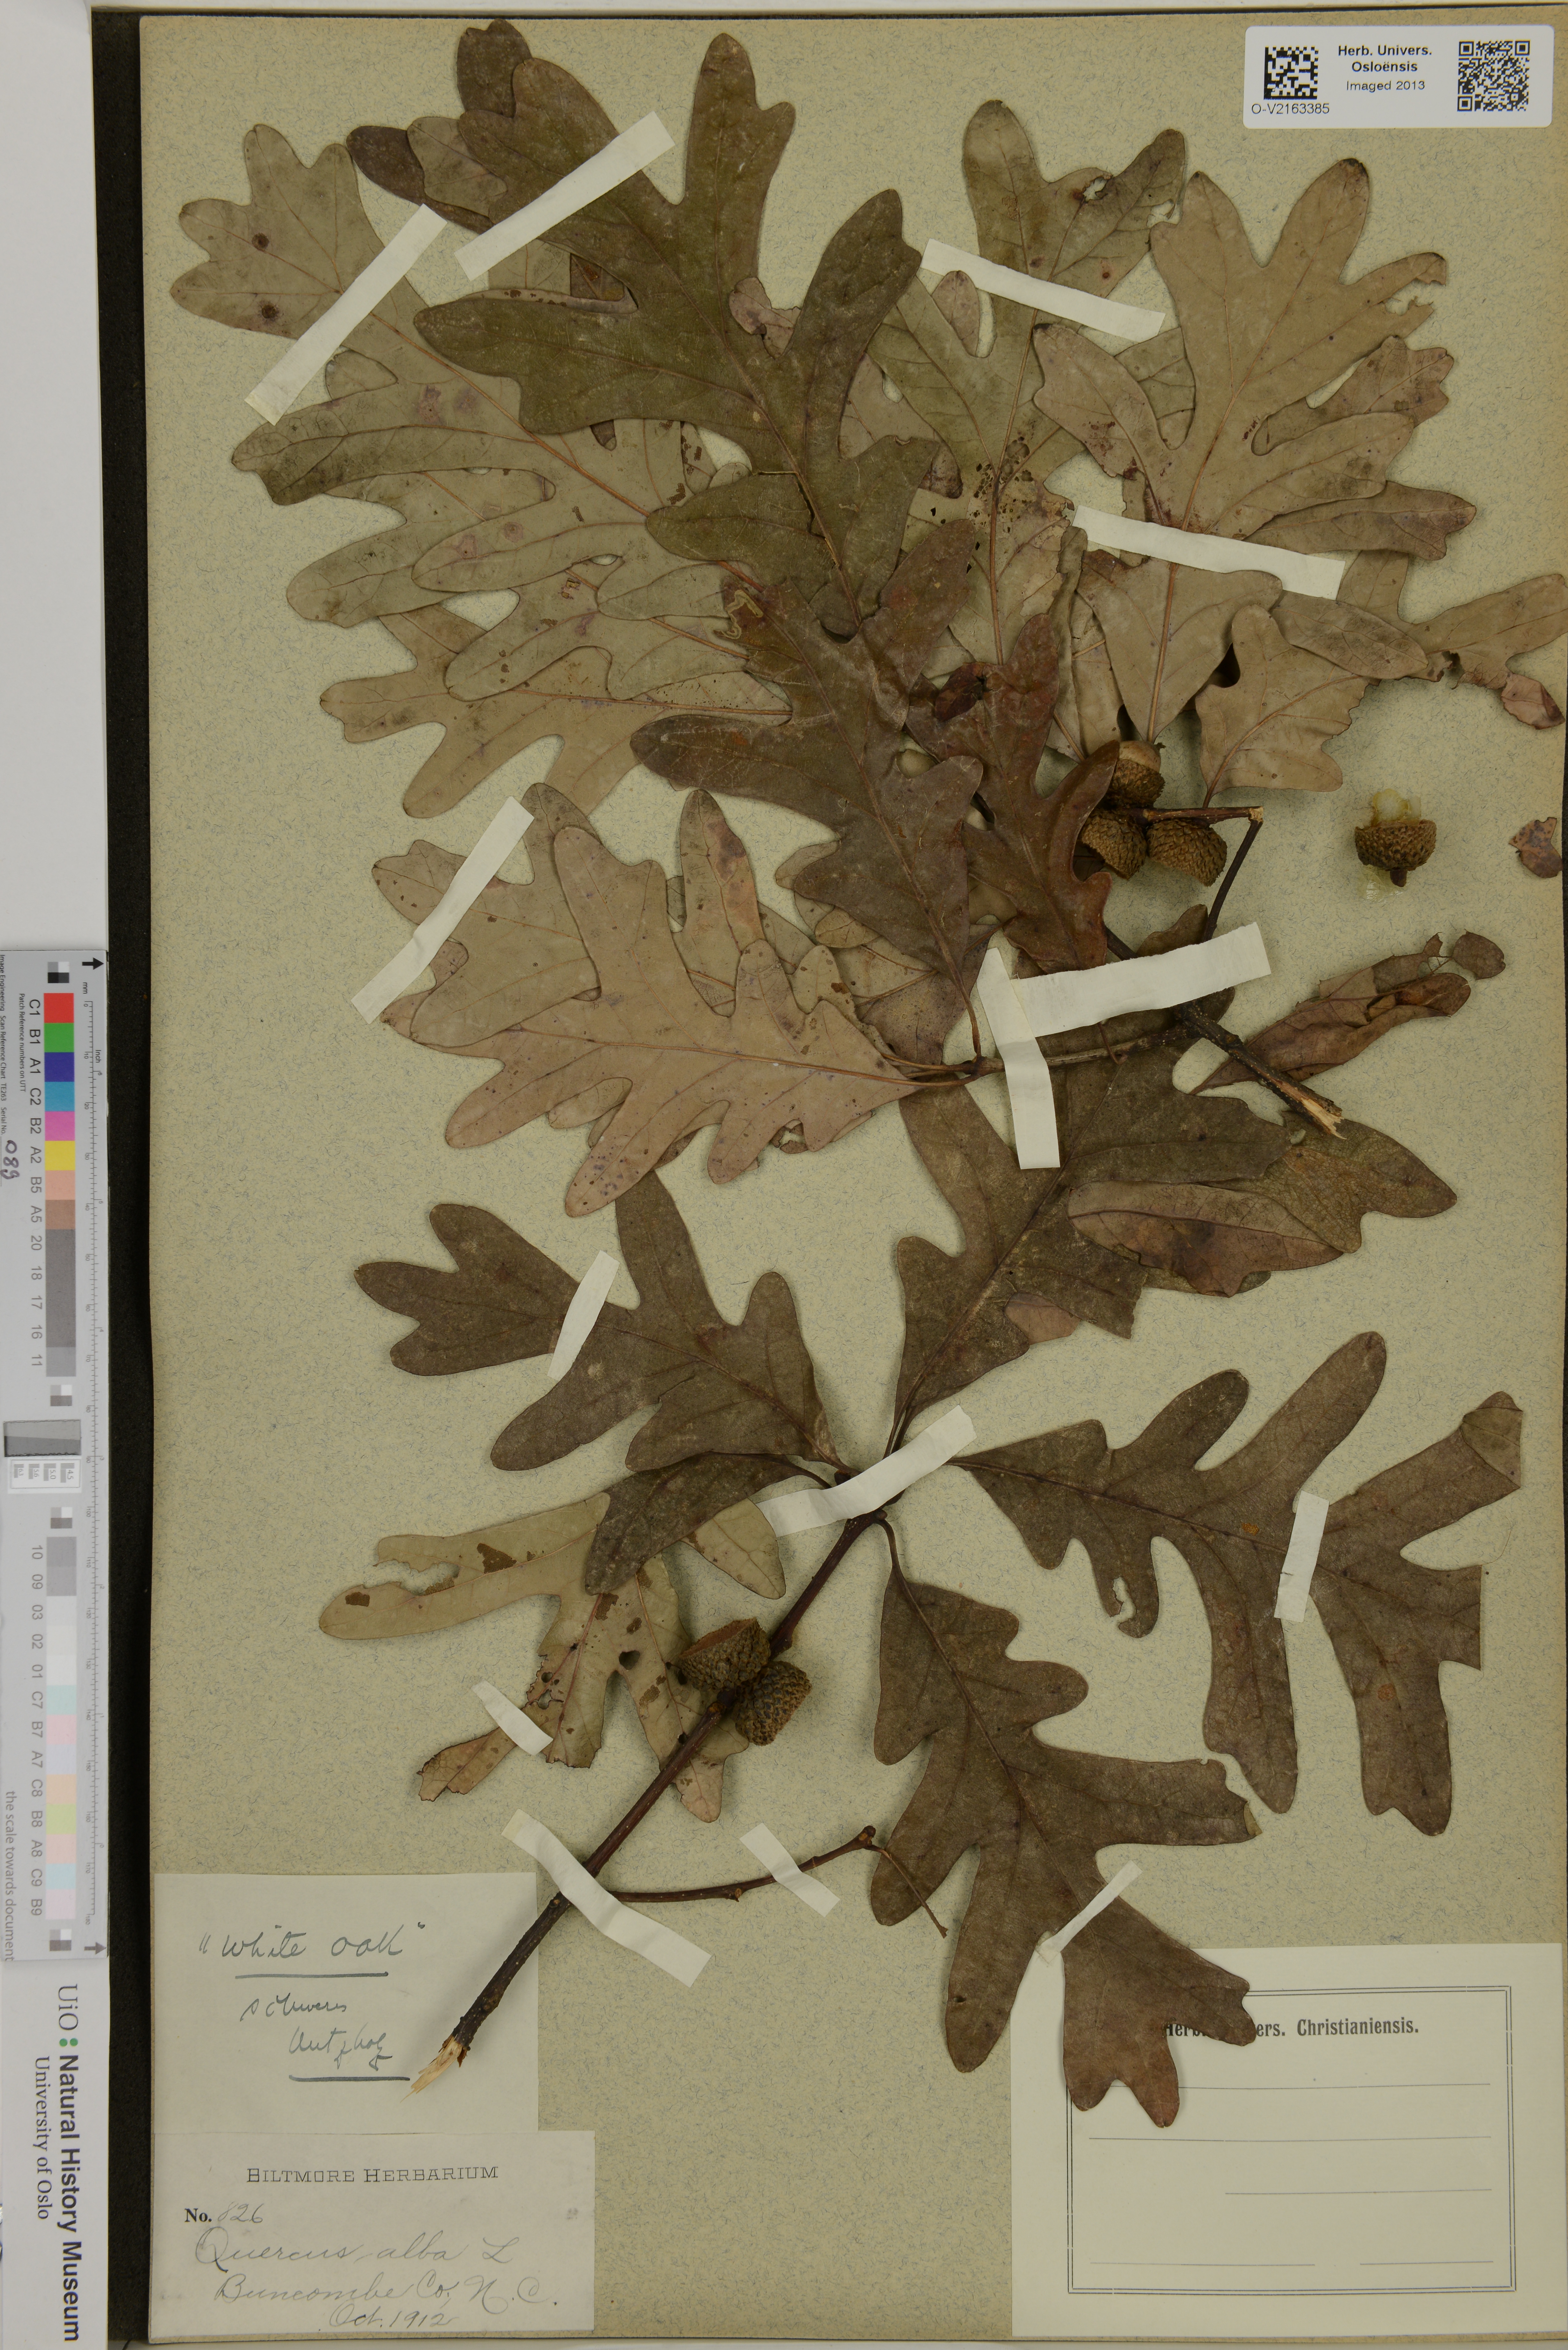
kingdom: Plantae
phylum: Tracheophyta
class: Magnoliopsida
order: Fagales
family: Fagaceae
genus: Quercus
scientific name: Quercus alba
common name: White oak
